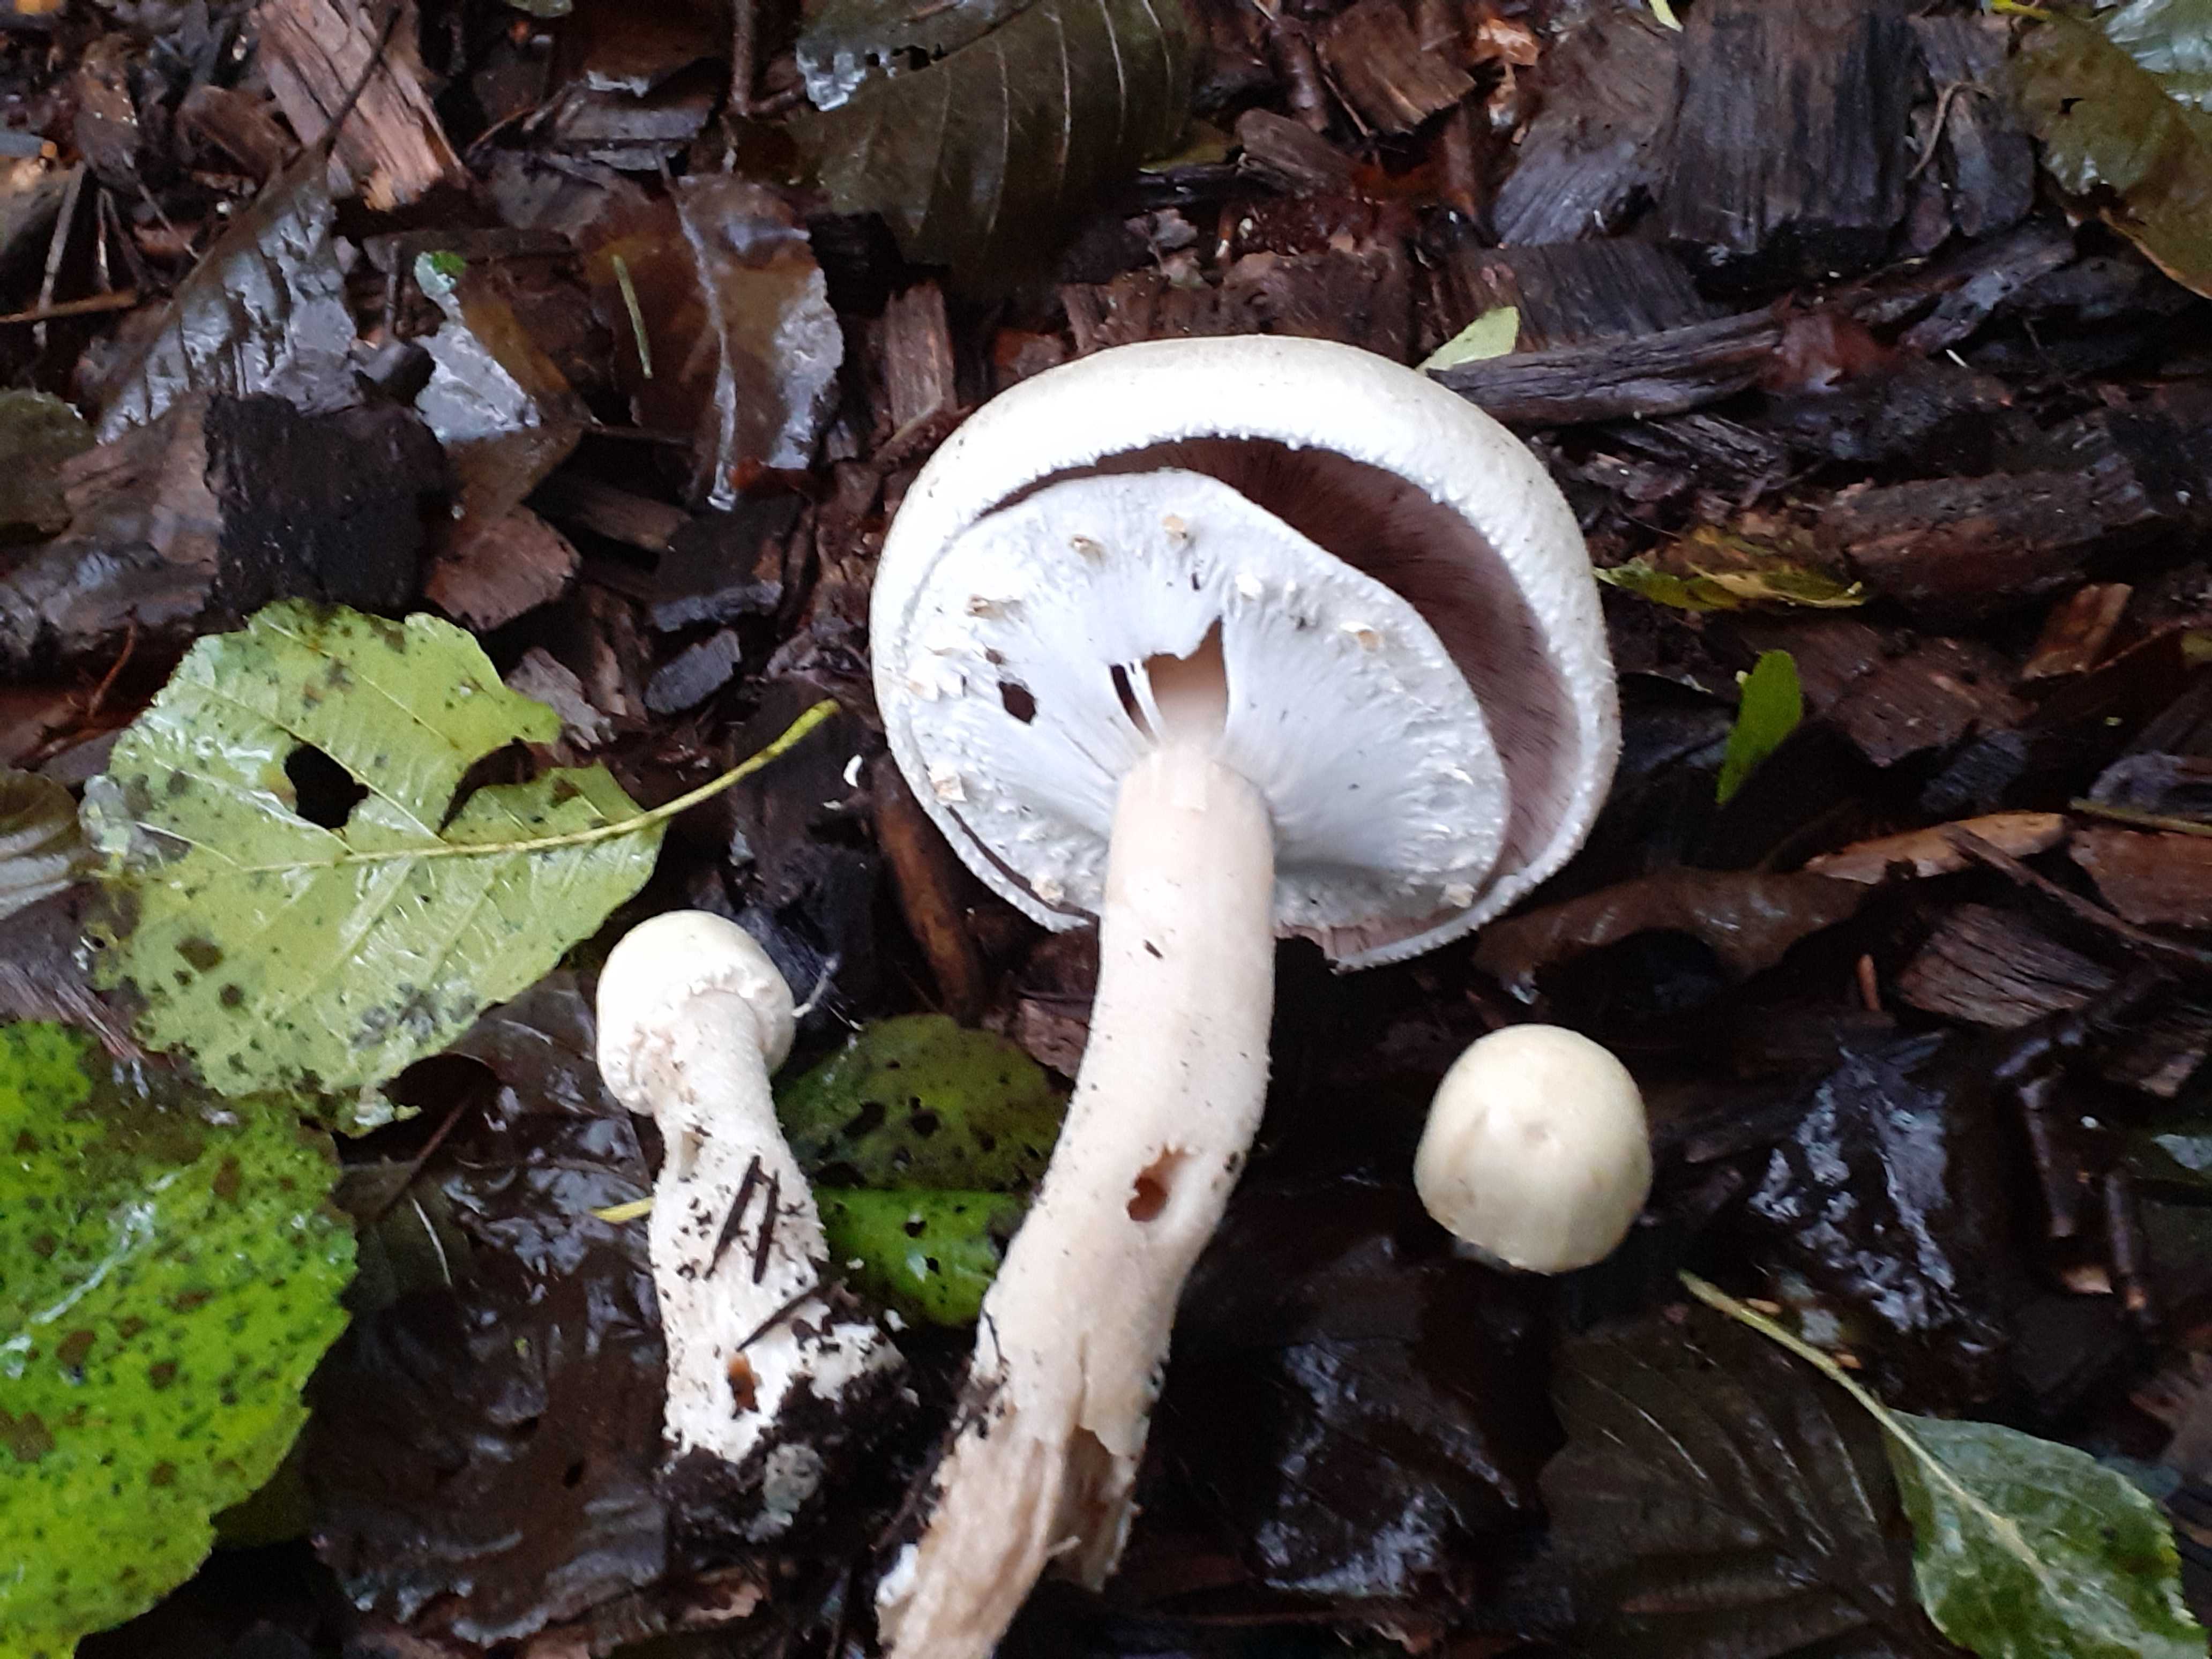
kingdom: Fungi
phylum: Basidiomycota
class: Agaricomycetes
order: Agaricales
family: Agaricaceae
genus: Agaricus
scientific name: Agaricus sylvicola
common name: gulhvid champignon
